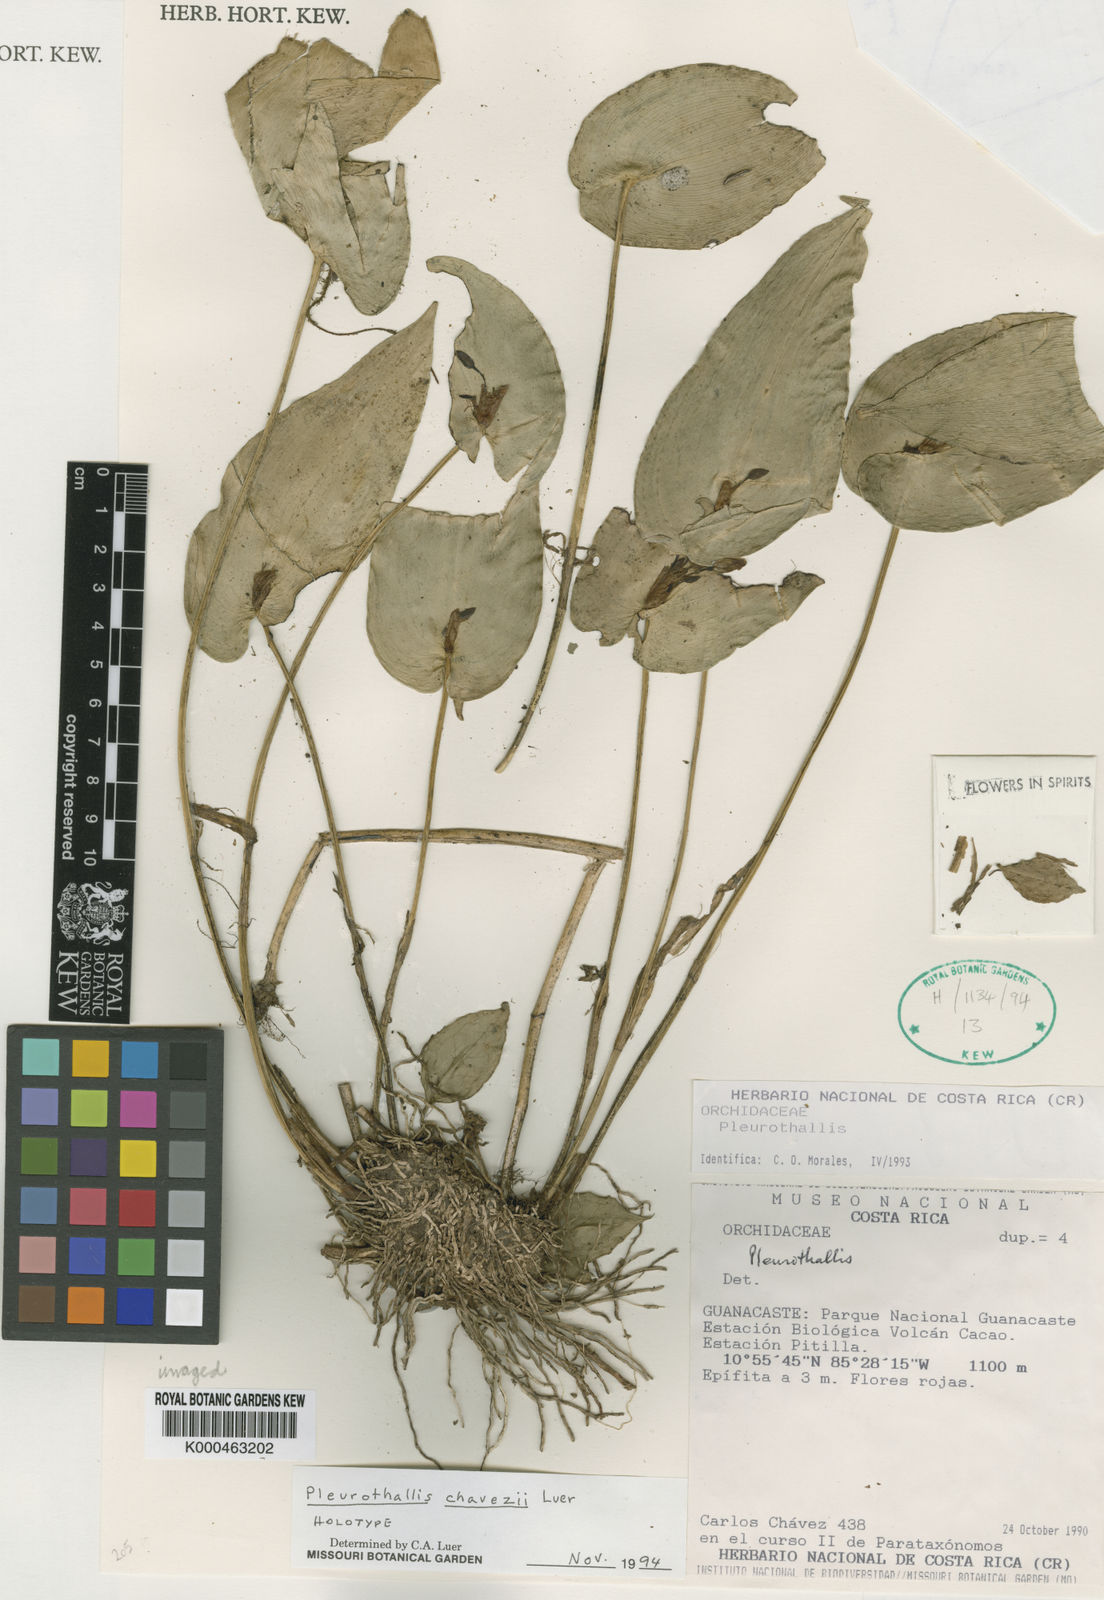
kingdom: Plantae
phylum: Tracheophyta
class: Liliopsida
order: Asparagales
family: Orchidaceae
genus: Pleurothallis
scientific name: Pleurothallis chavezii
